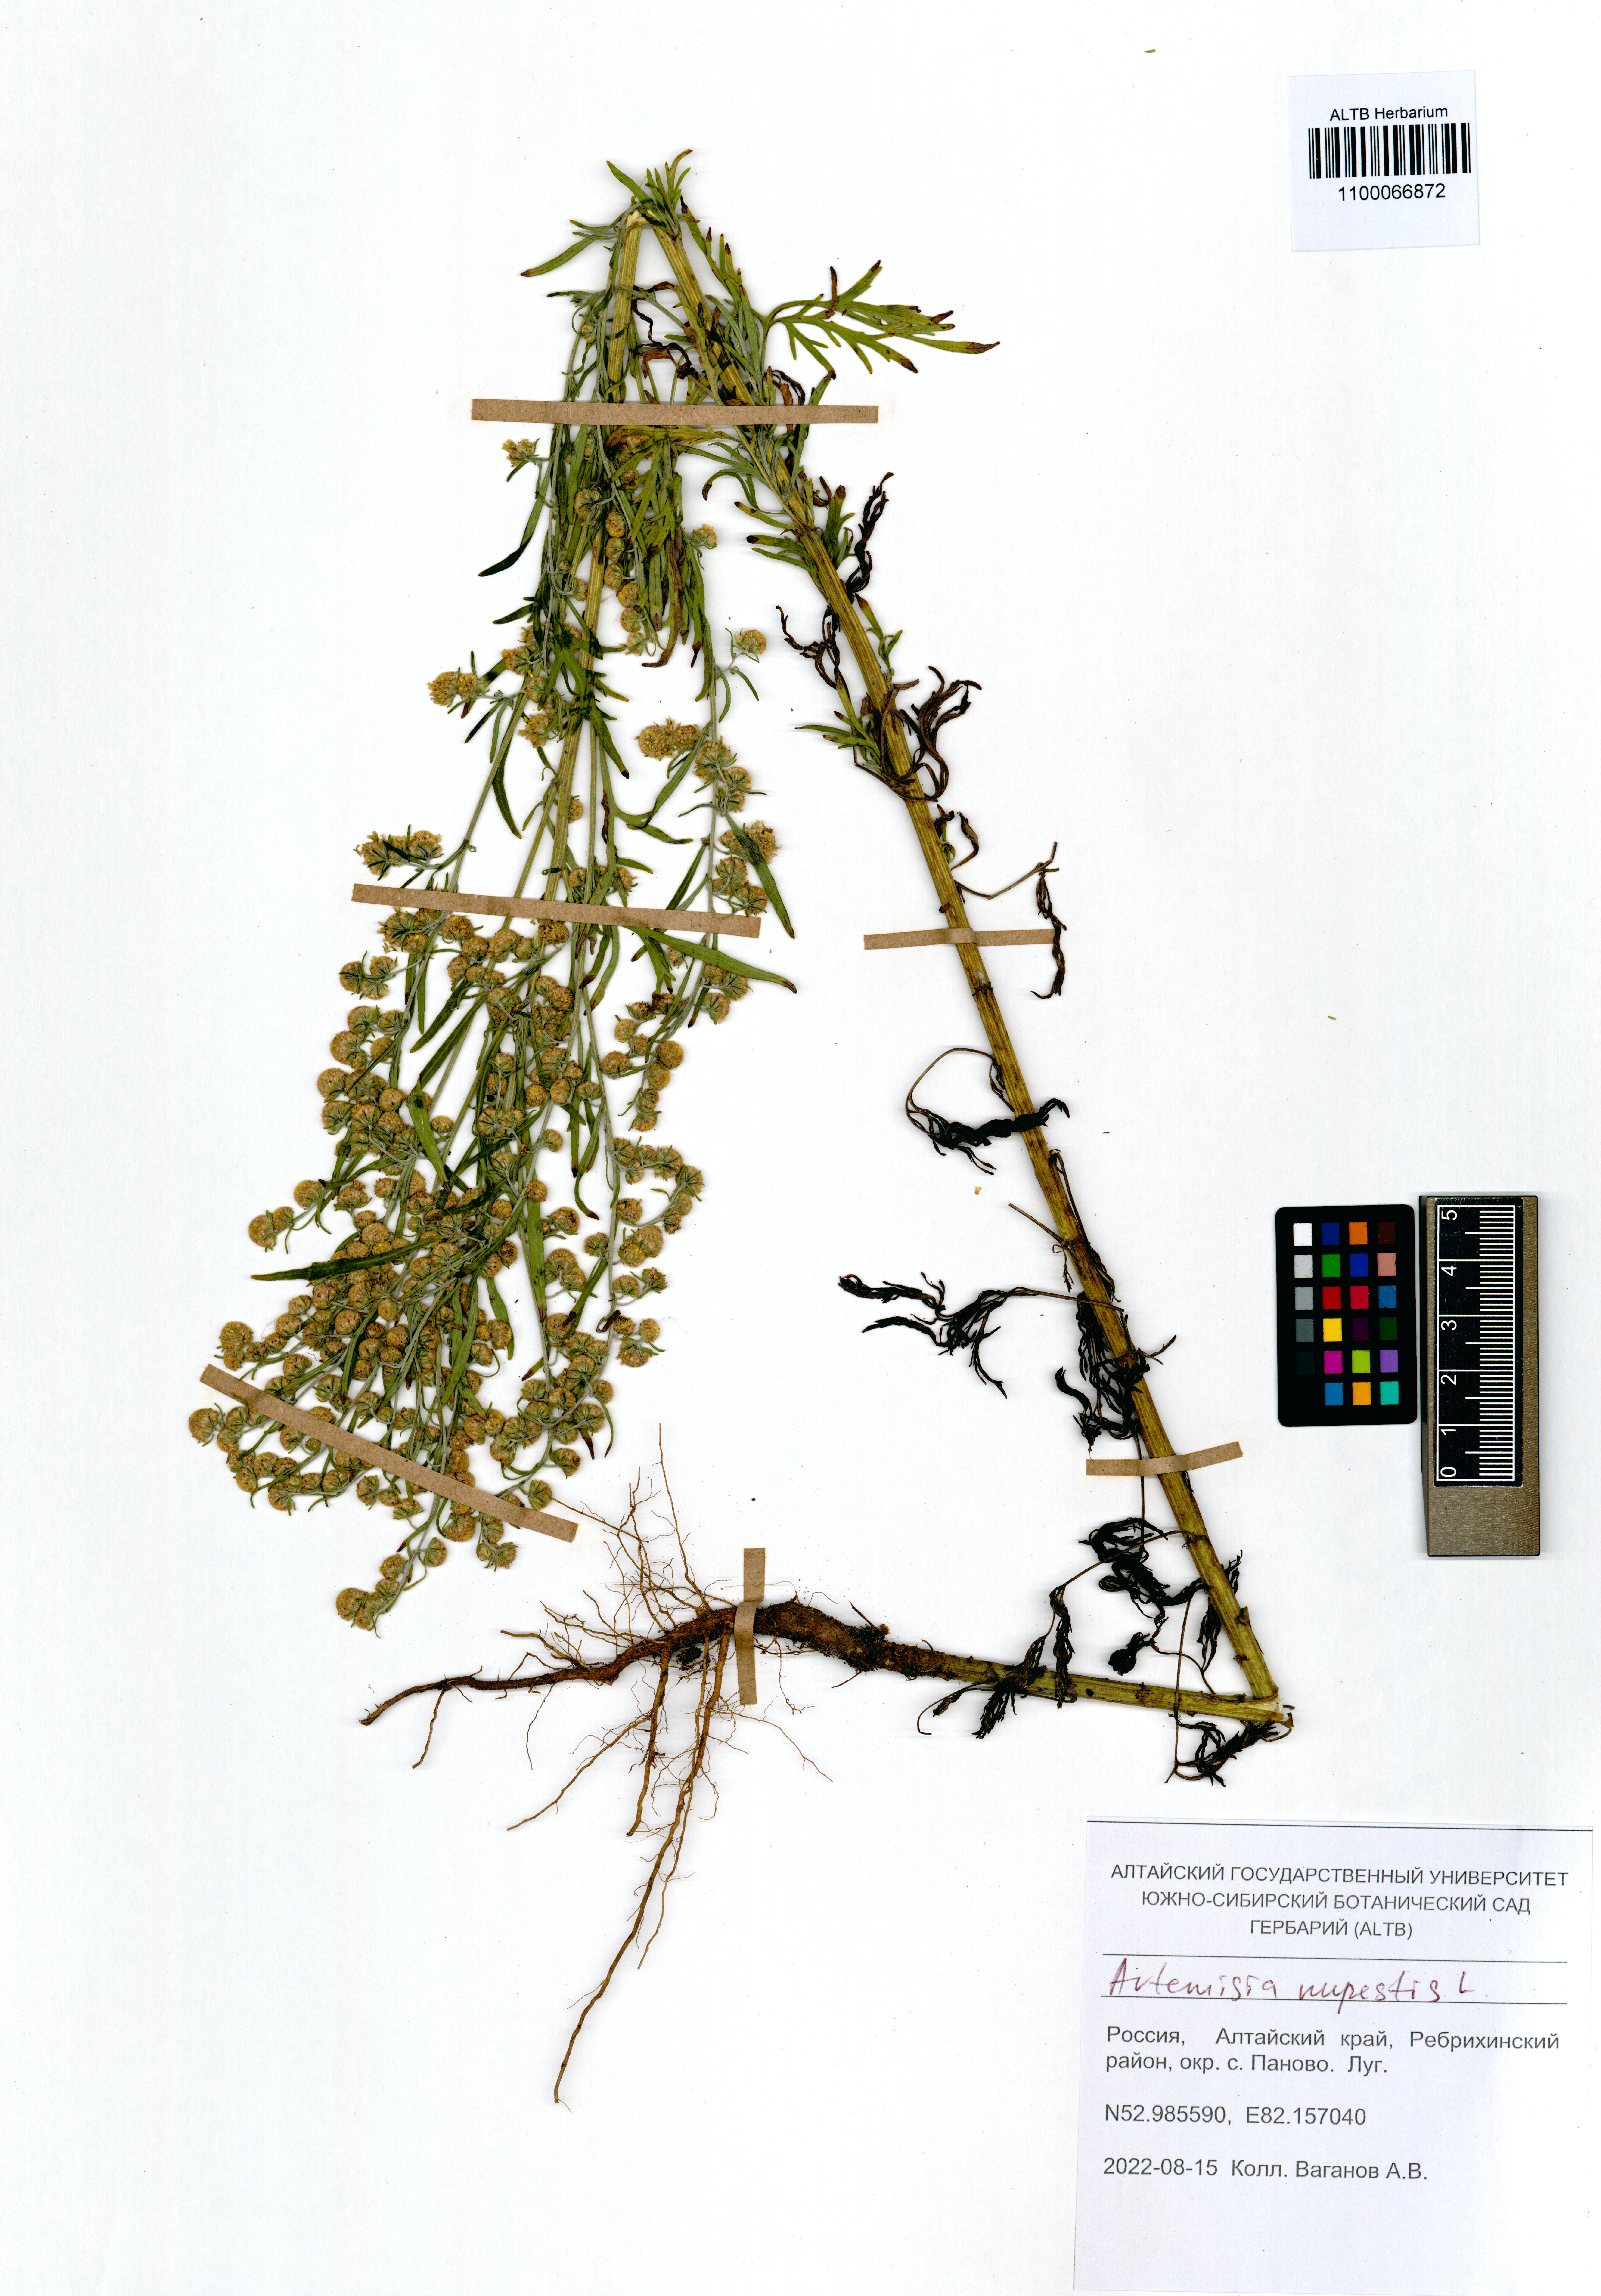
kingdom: Plantae
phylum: Tracheophyta
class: Magnoliopsida
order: Asterales
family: Asteraceae
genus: Artemisia
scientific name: Artemisia rupestris
